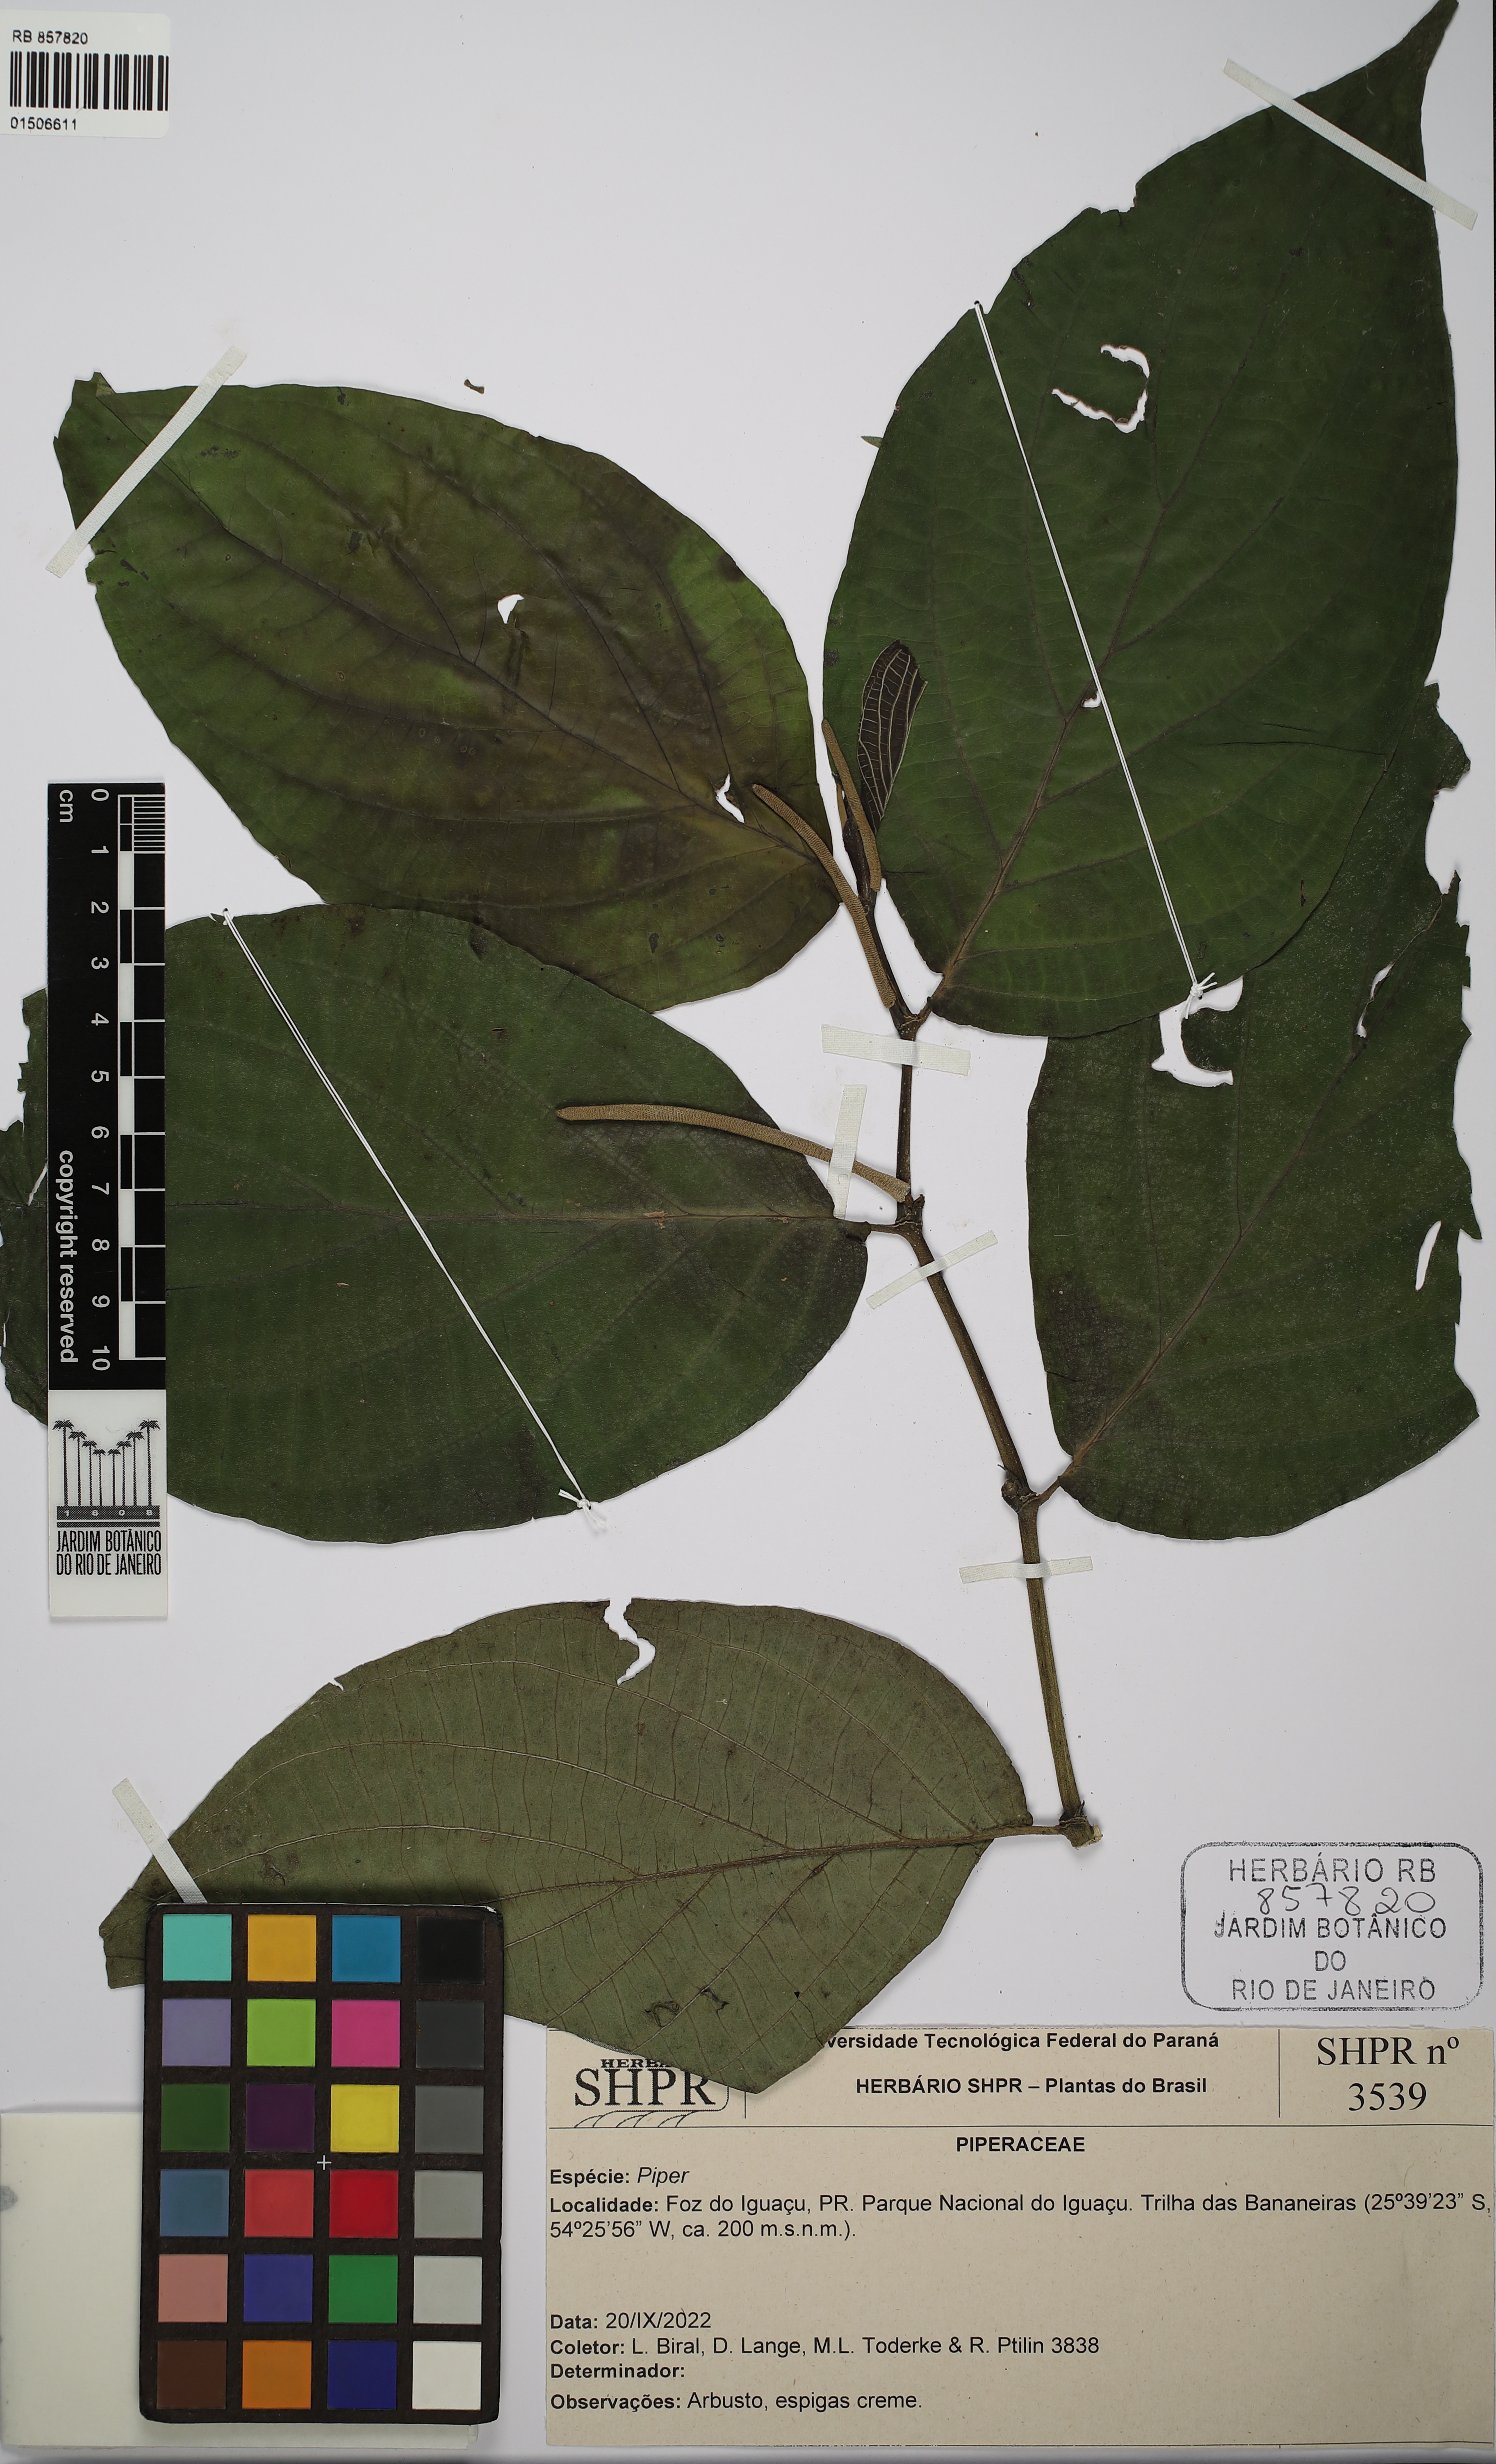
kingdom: Plantae
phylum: Tracheophyta
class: Magnoliopsida
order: Piperales
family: Piperaceae
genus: Piper
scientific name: Piper
